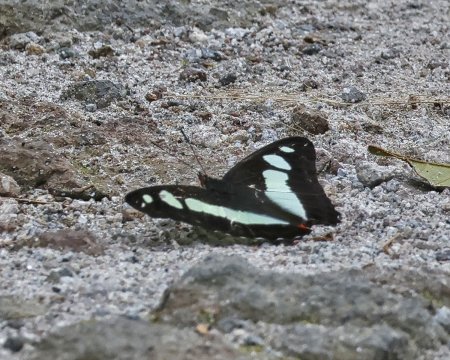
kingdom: Animalia
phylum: Arthropoda
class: Insecta
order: Lepidoptera
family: Nymphalidae
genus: Pyrrhogyra
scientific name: Pyrrhogyra edocla
